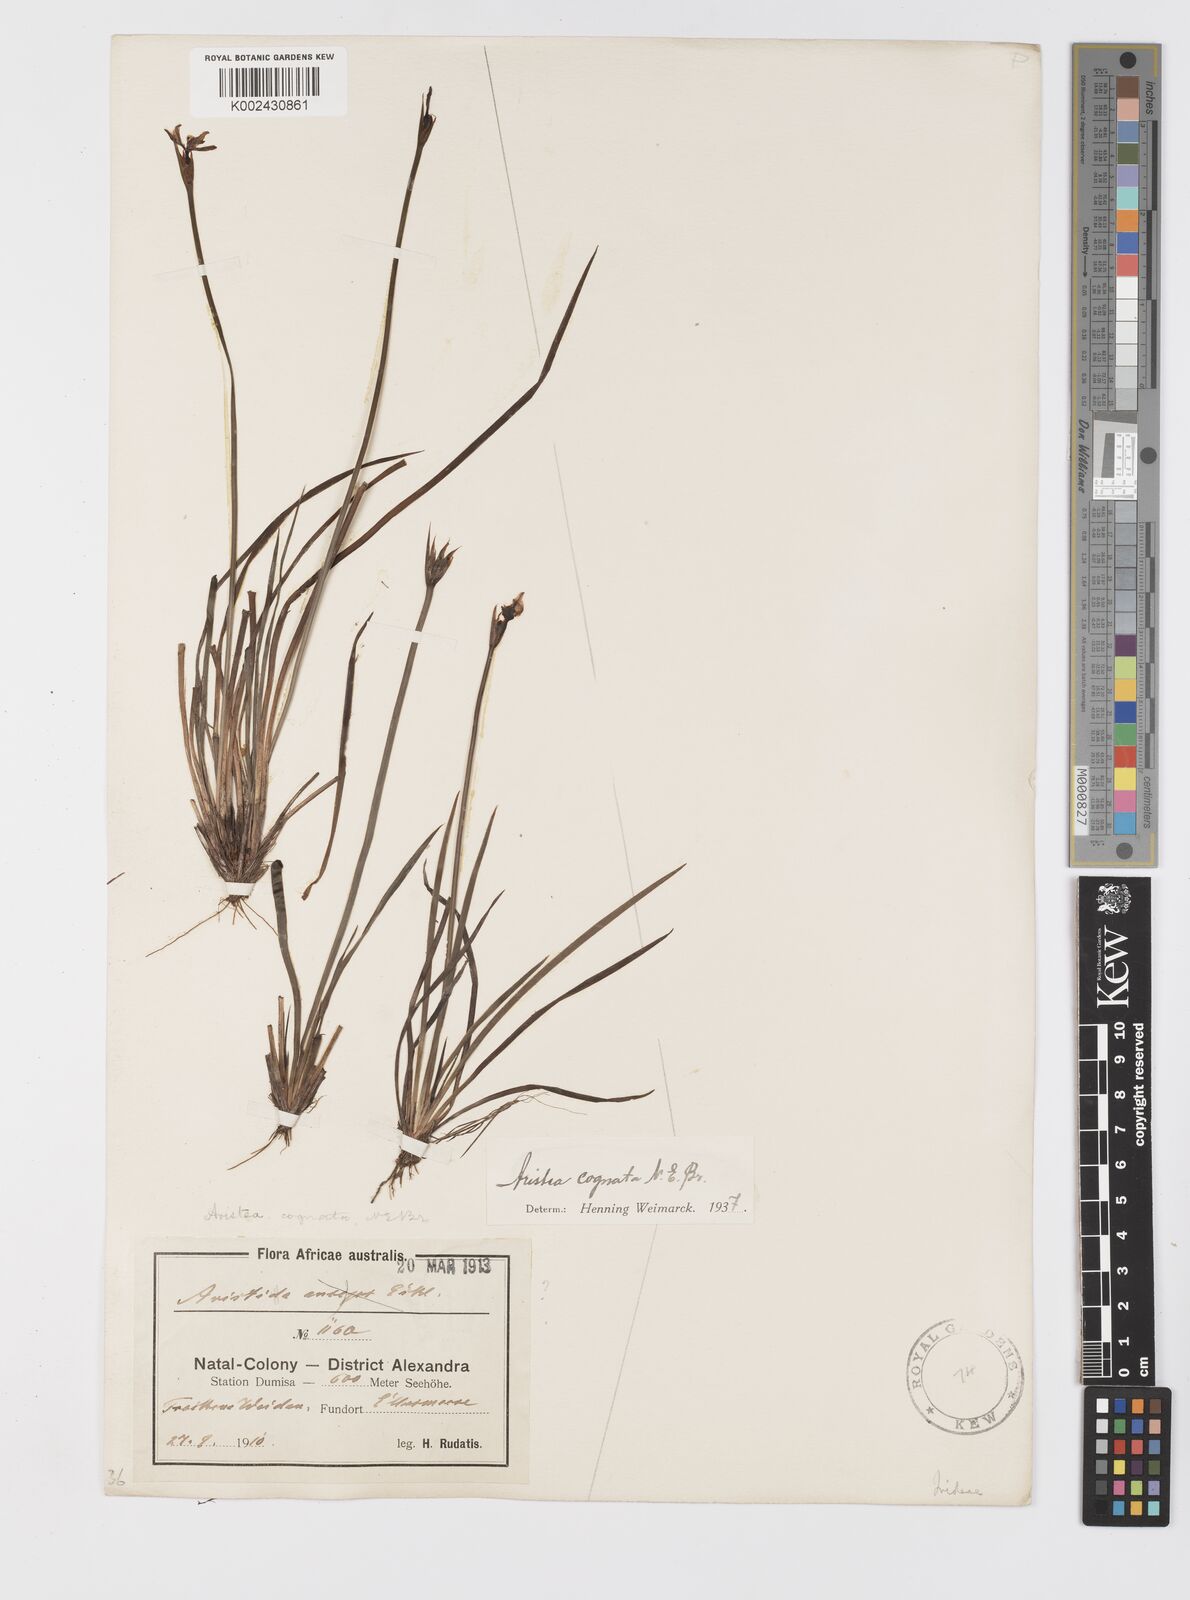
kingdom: Plantae
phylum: Tracheophyta
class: Liliopsida
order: Asparagales
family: Iridaceae
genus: Aristea
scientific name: Aristea abyssinica
